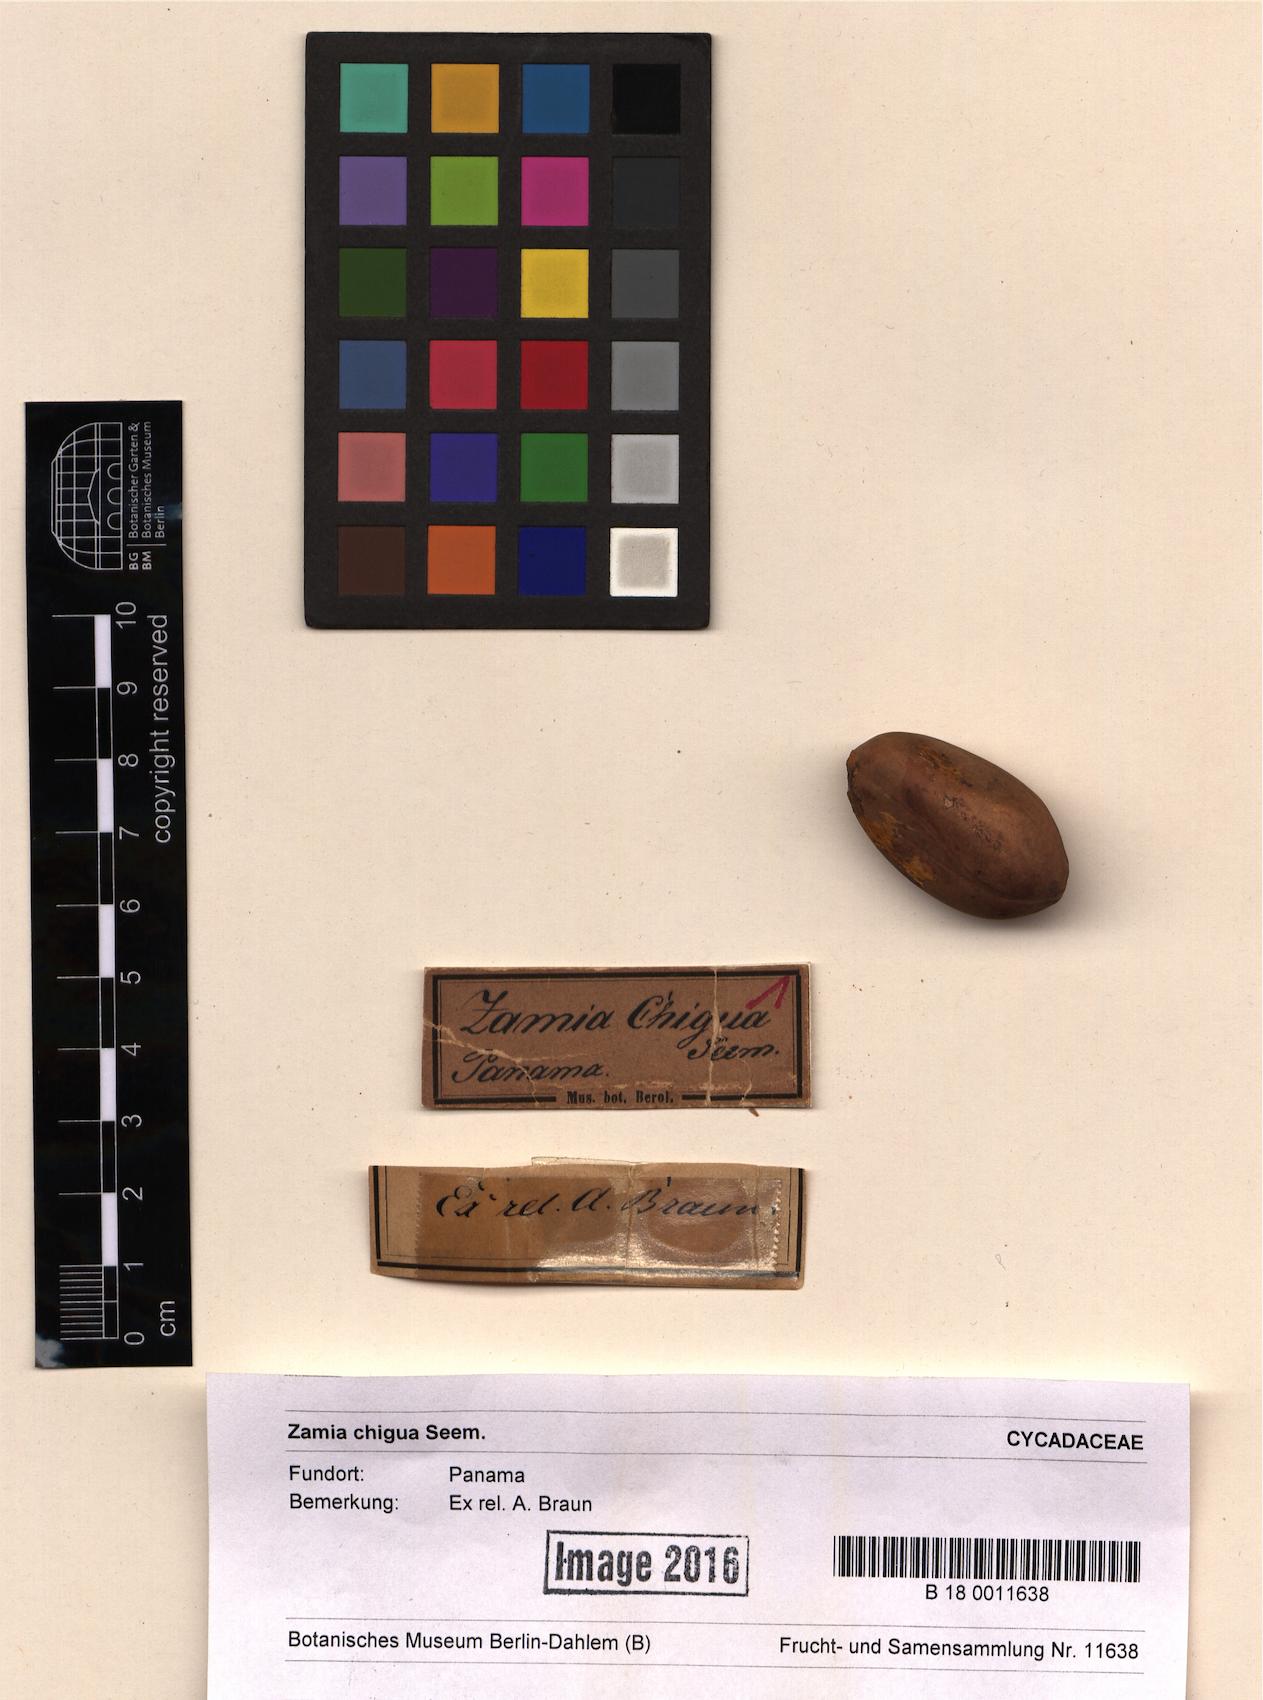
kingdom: Plantae
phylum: Tracheophyta
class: Cycadopsida
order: Cycadales
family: Zamiaceae
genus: Zamia
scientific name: Zamia chigua
